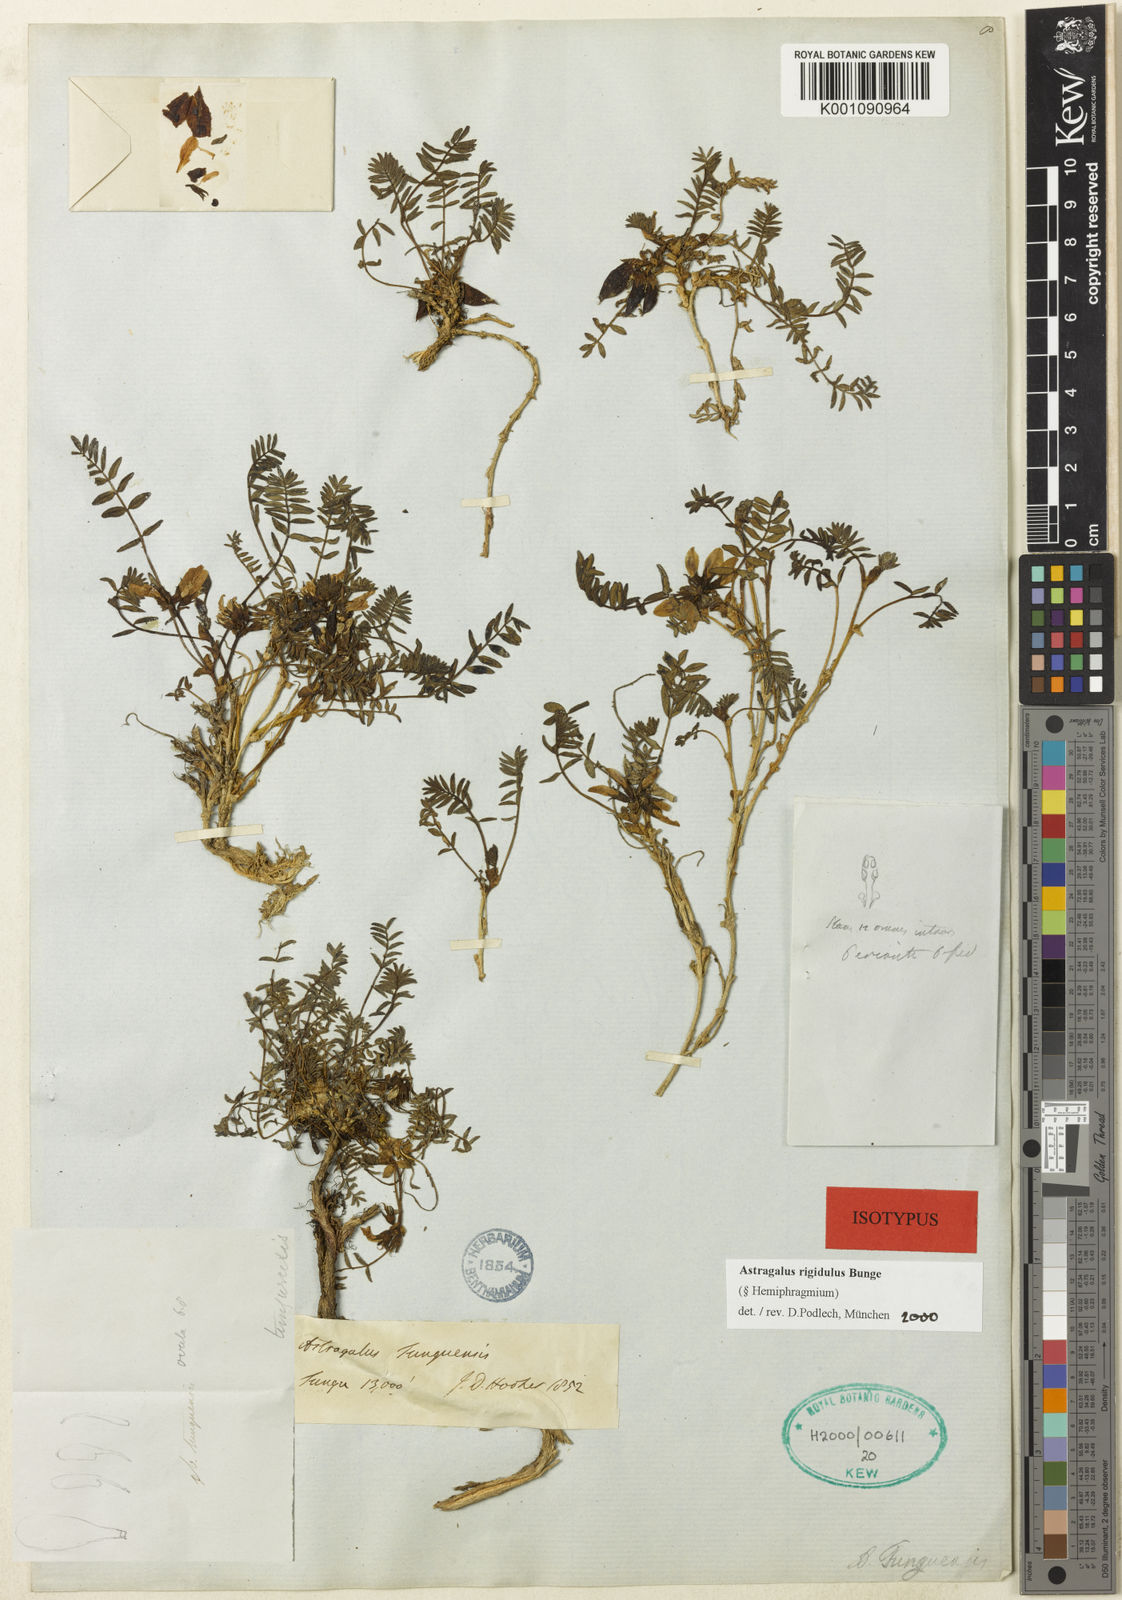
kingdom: Plantae
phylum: Tracheophyta
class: Magnoliopsida
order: Fabales
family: Fabaceae
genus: Astragalus
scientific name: Astragalus
